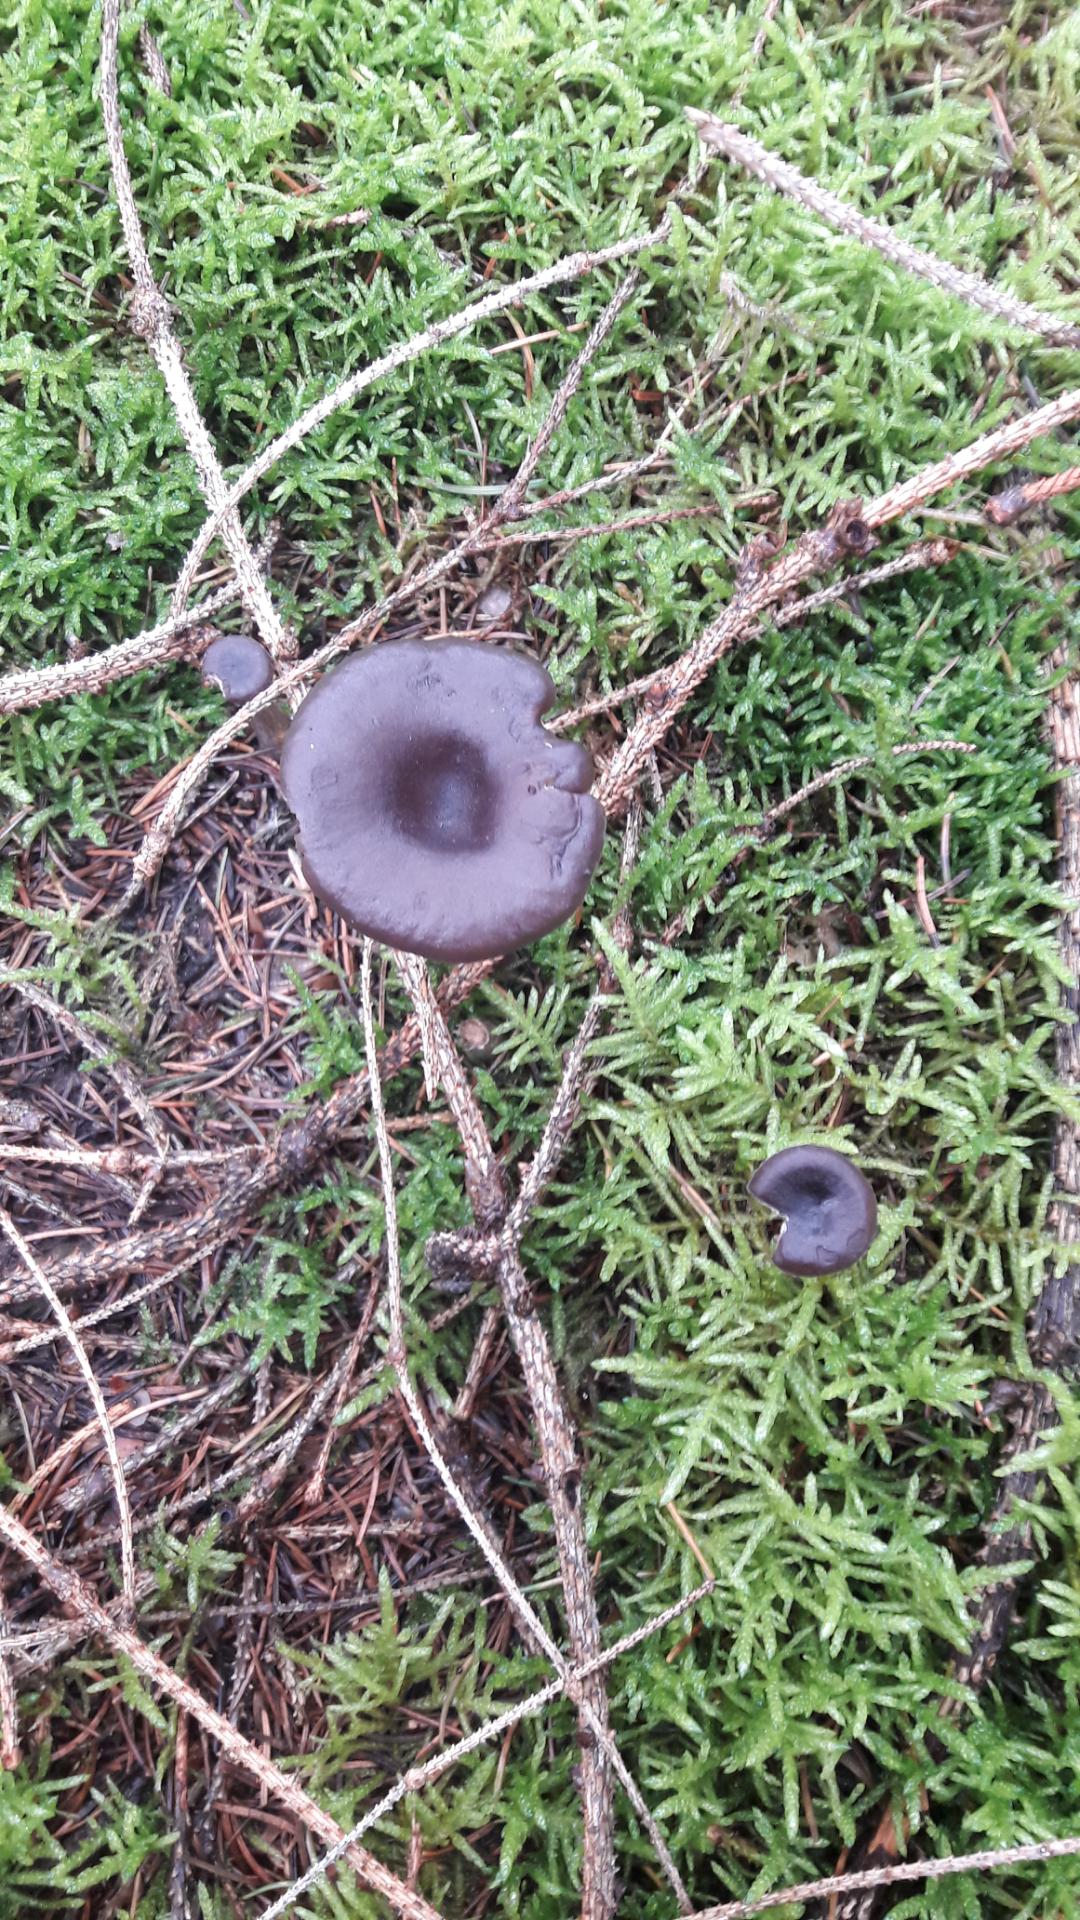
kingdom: Fungi
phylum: Basidiomycota
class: Agaricomycetes
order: Agaricales
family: Pseudoclitocybaceae
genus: Pseudoclitocybe
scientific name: Pseudoclitocybe cyathiformis
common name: almindelig bægertragthat
